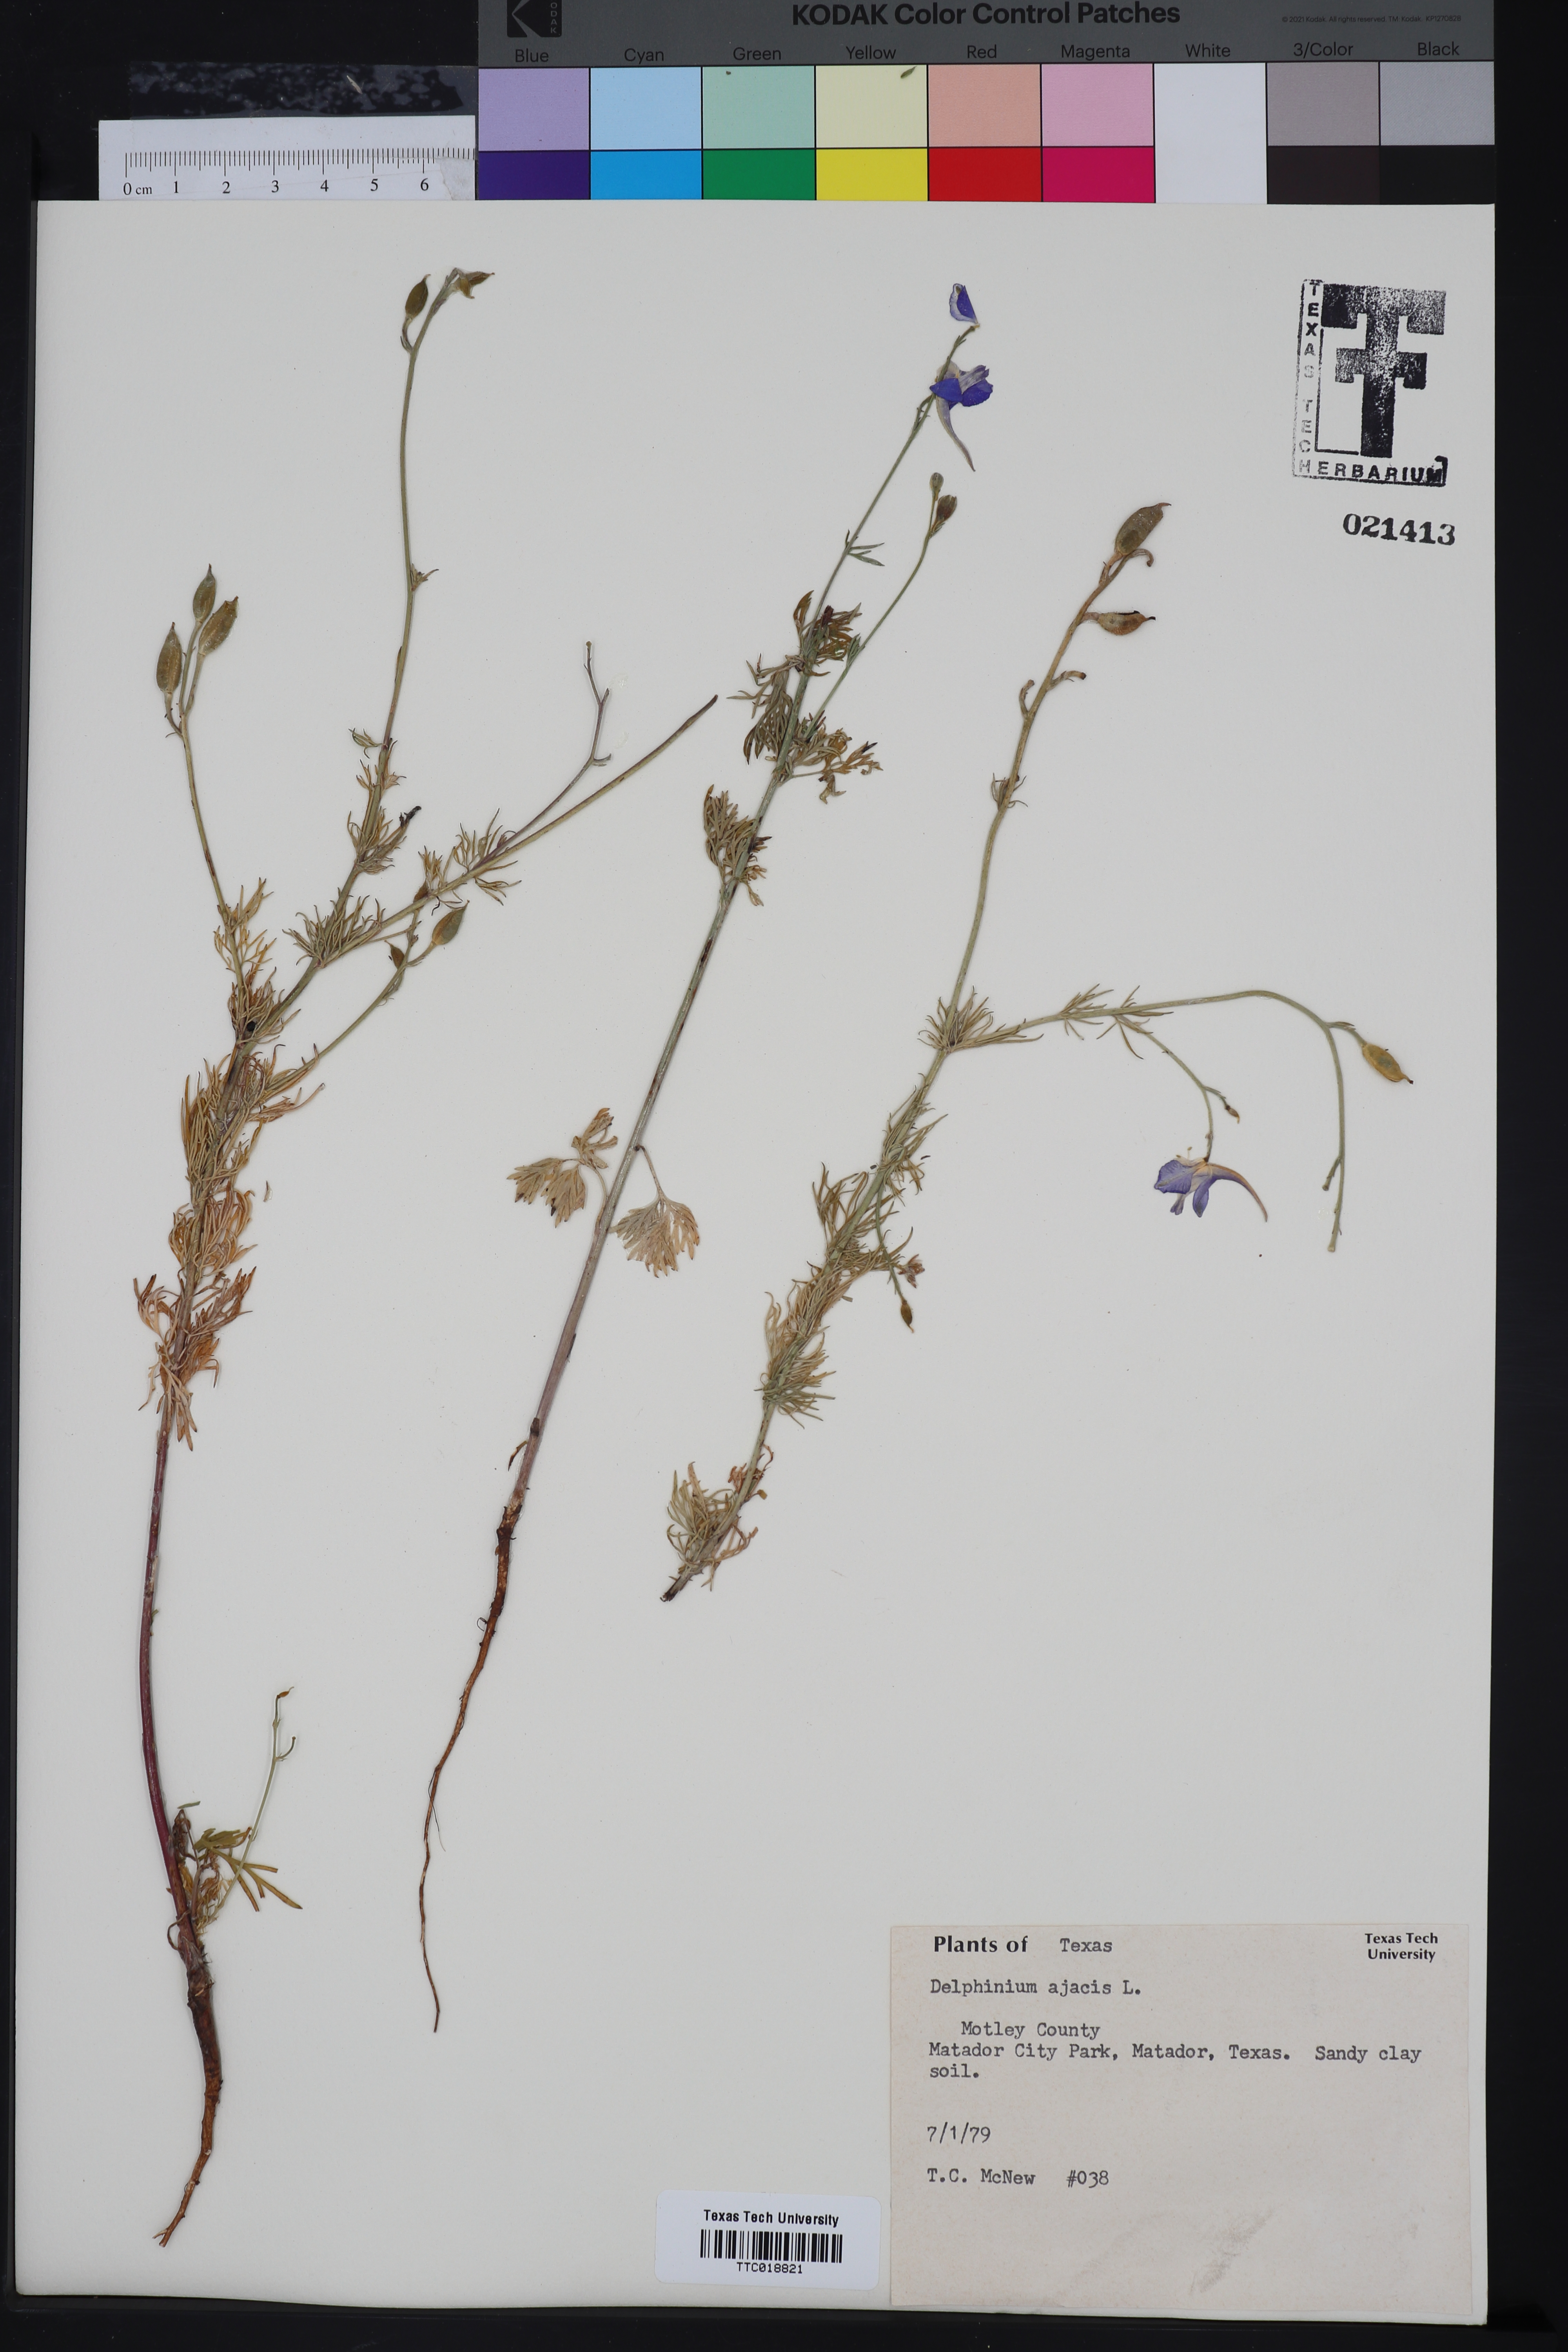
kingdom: Plantae
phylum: Tracheophyta
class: Magnoliopsida
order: Ranunculales
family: Ranunculaceae
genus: Delphinium
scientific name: Delphinium ajacis
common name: Doubtful knight's-spur
